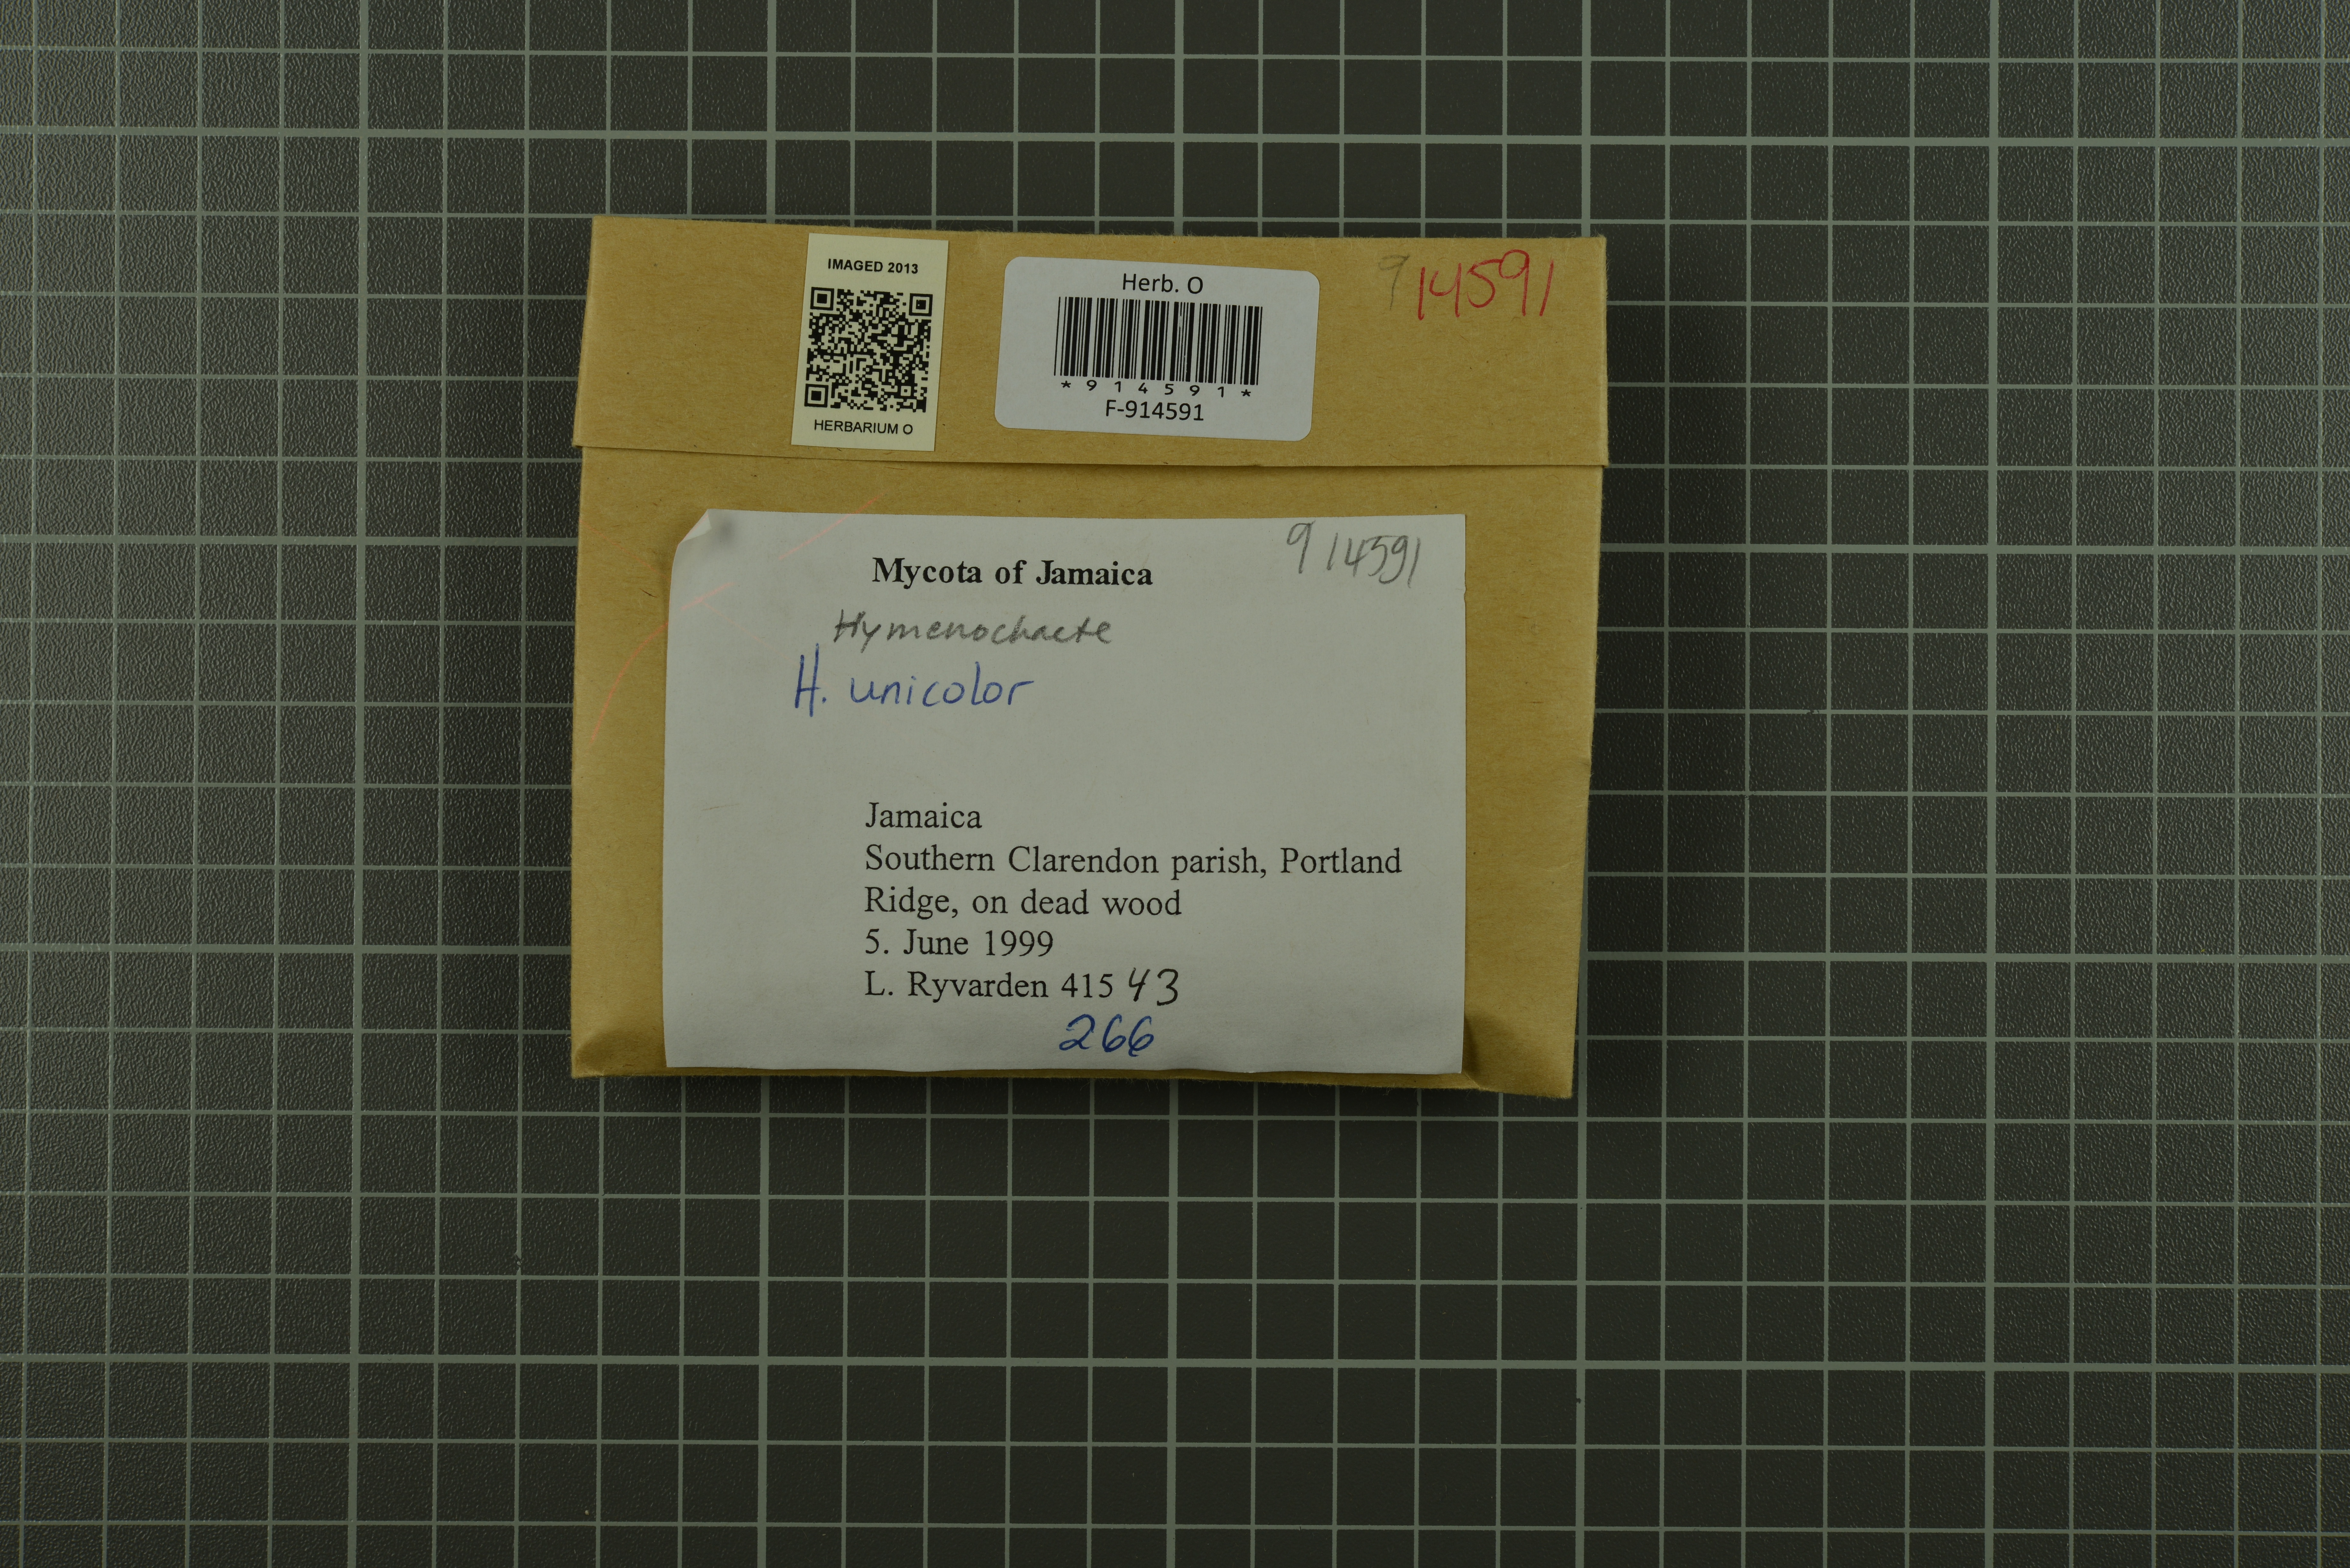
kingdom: Fungi
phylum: Basidiomycota
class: Agaricomycetes
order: Hymenochaetales
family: Hymenochaetaceae
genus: Hymenochaete
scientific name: Hymenochaete unicolor
